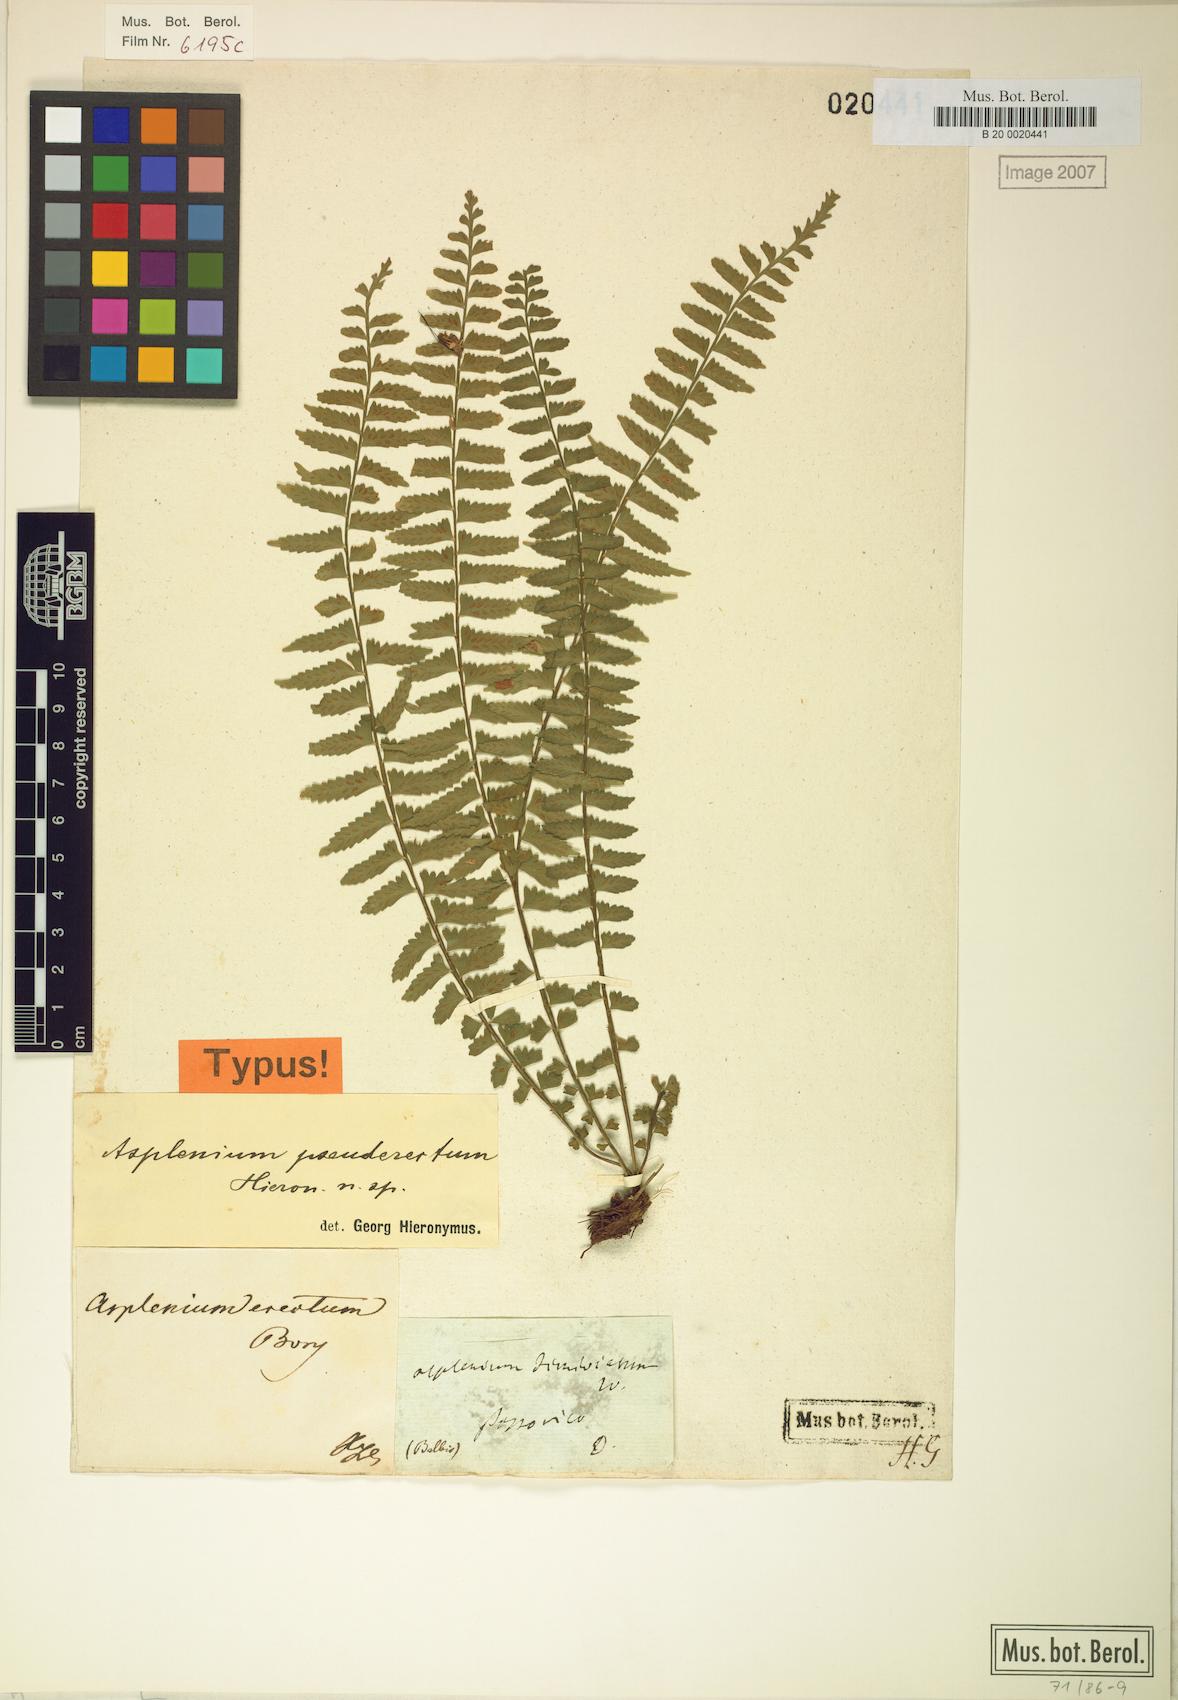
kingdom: Plantae
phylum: Tracheophyta
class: Polypodiopsida
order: Polypodiales
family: Aspleniaceae
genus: Asplenium
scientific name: Asplenium pseuderectum
